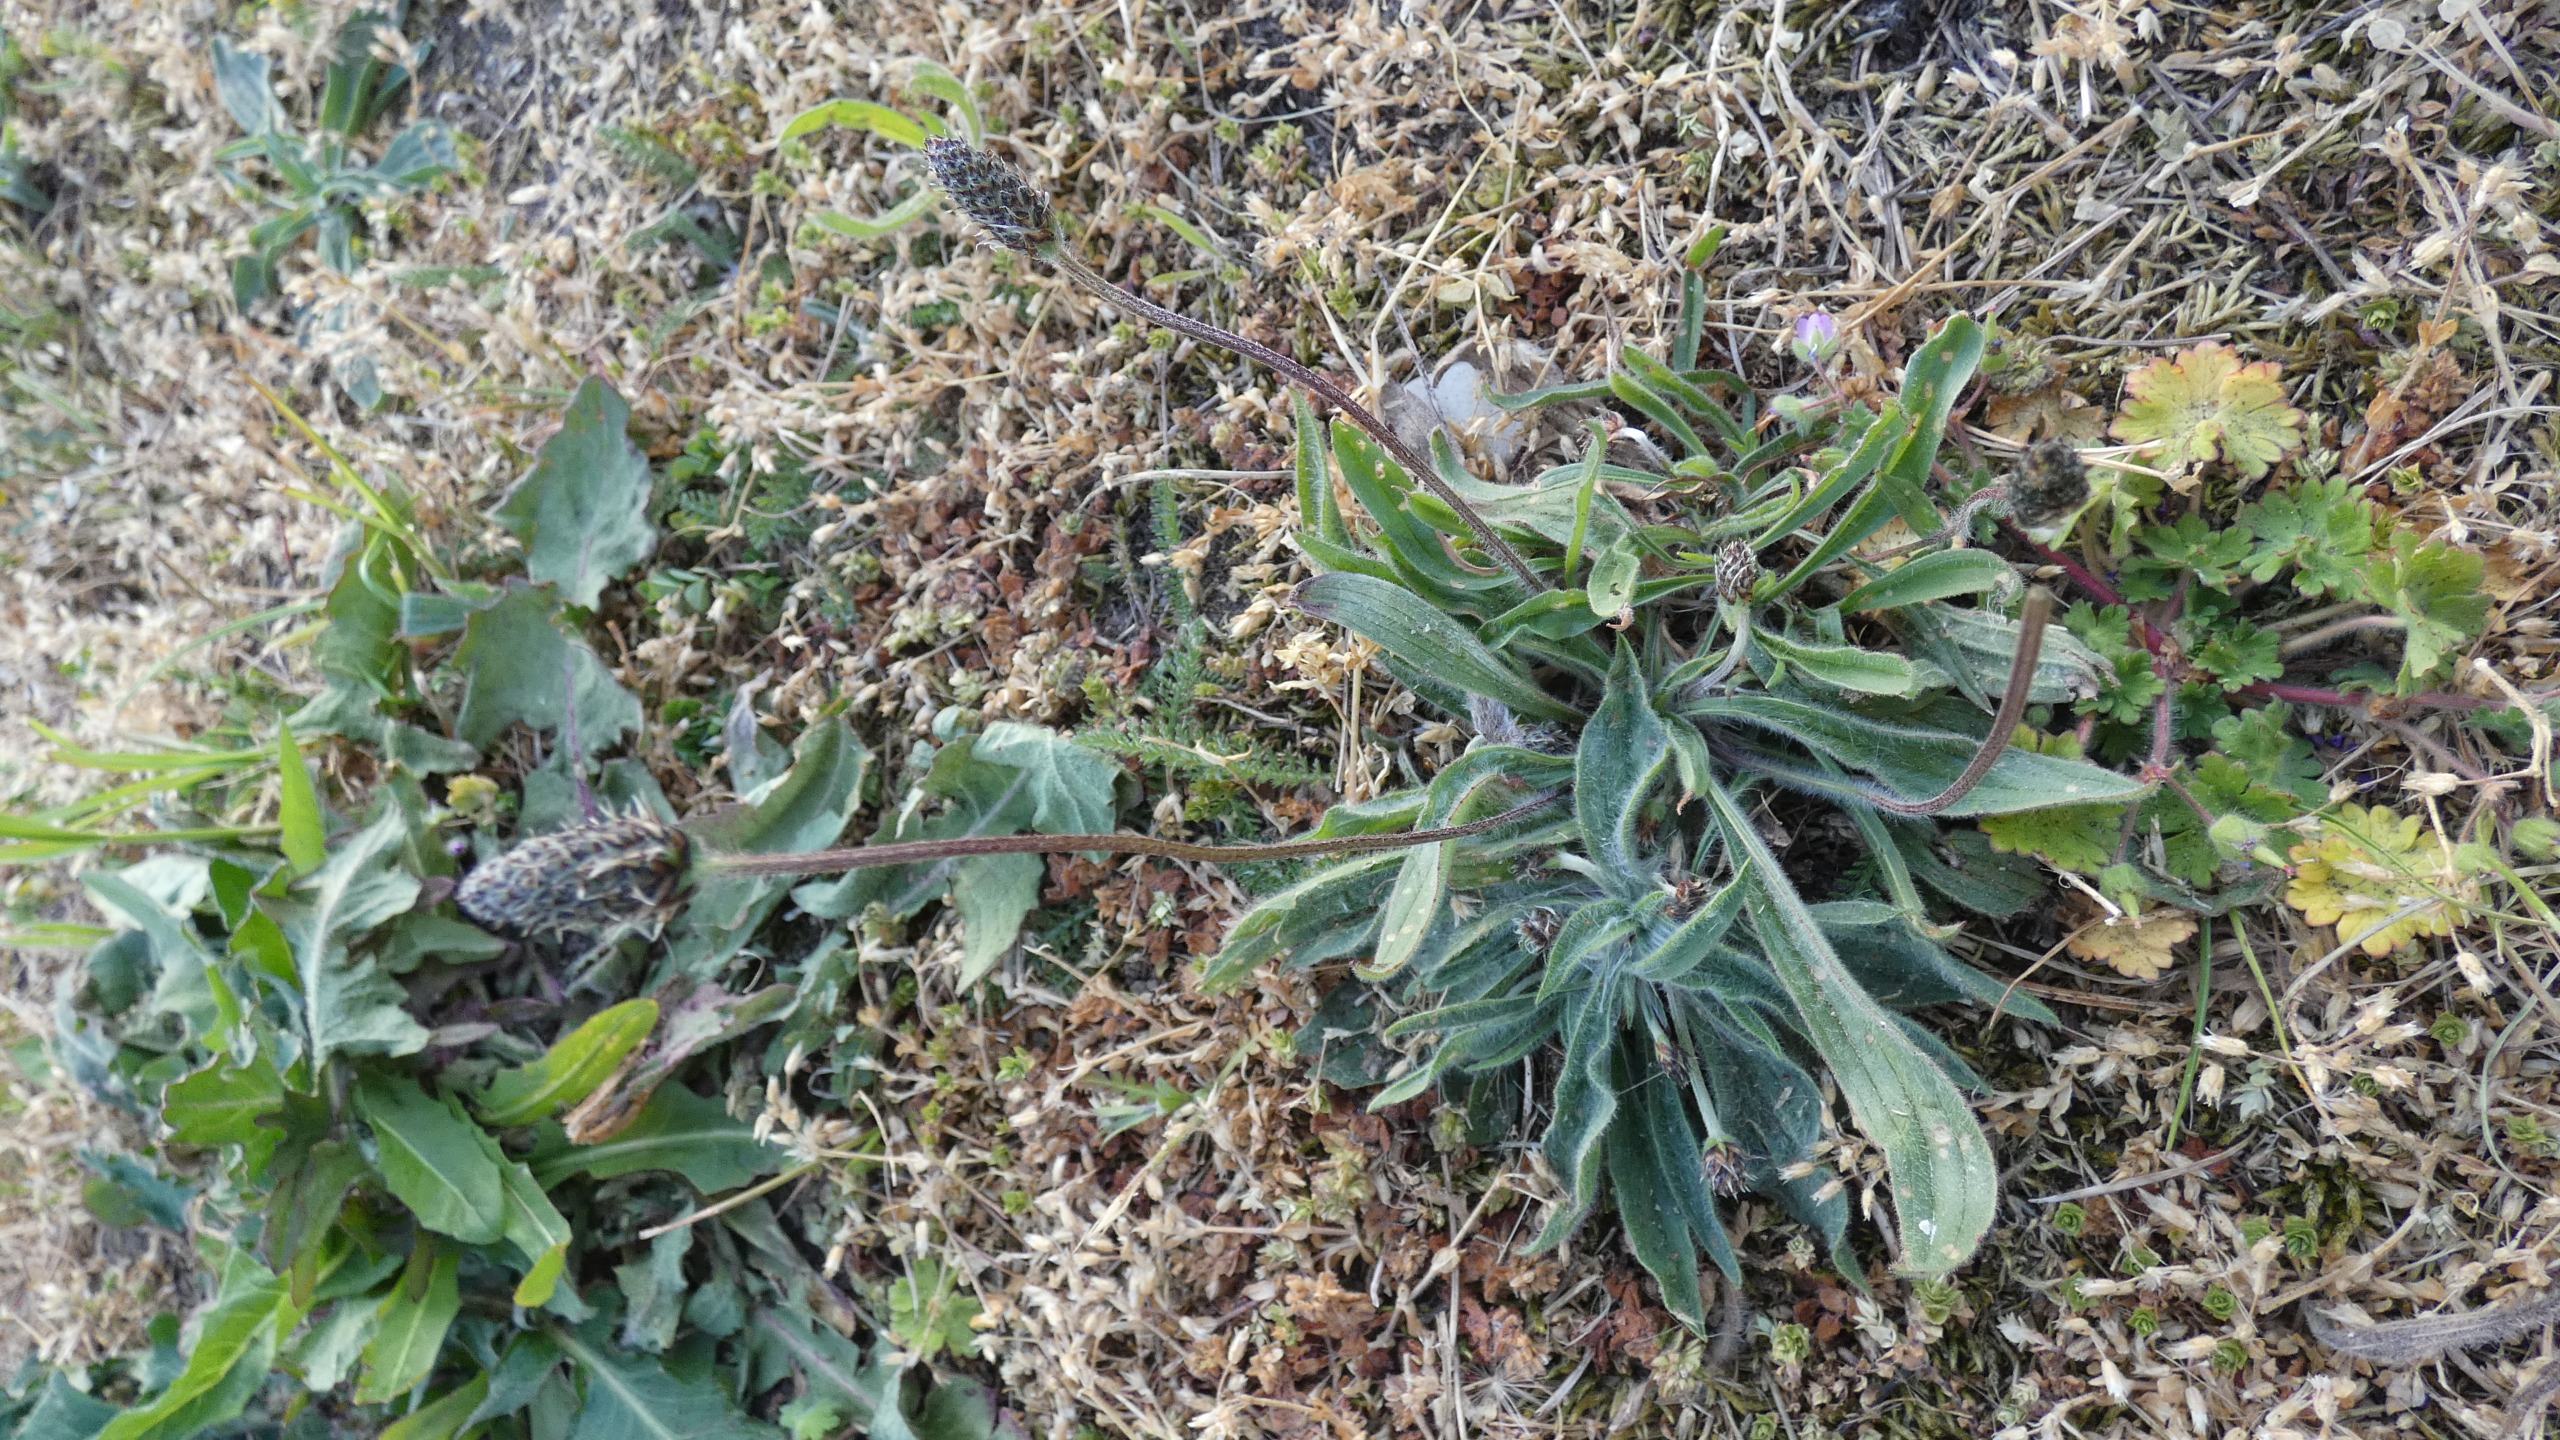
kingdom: Plantae
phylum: Tracheophyta
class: Magnoliopsida
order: Lamiales
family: Plantaginaceae
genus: Plantago
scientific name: Plantago lanceolata
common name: Lancet-vejbred
